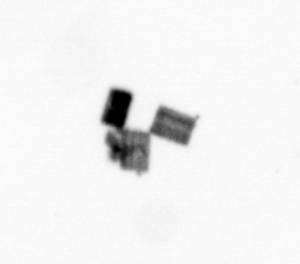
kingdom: Chromista
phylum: Ochrophyta
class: Bacillariophyceae
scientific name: Bacillariophyceae
